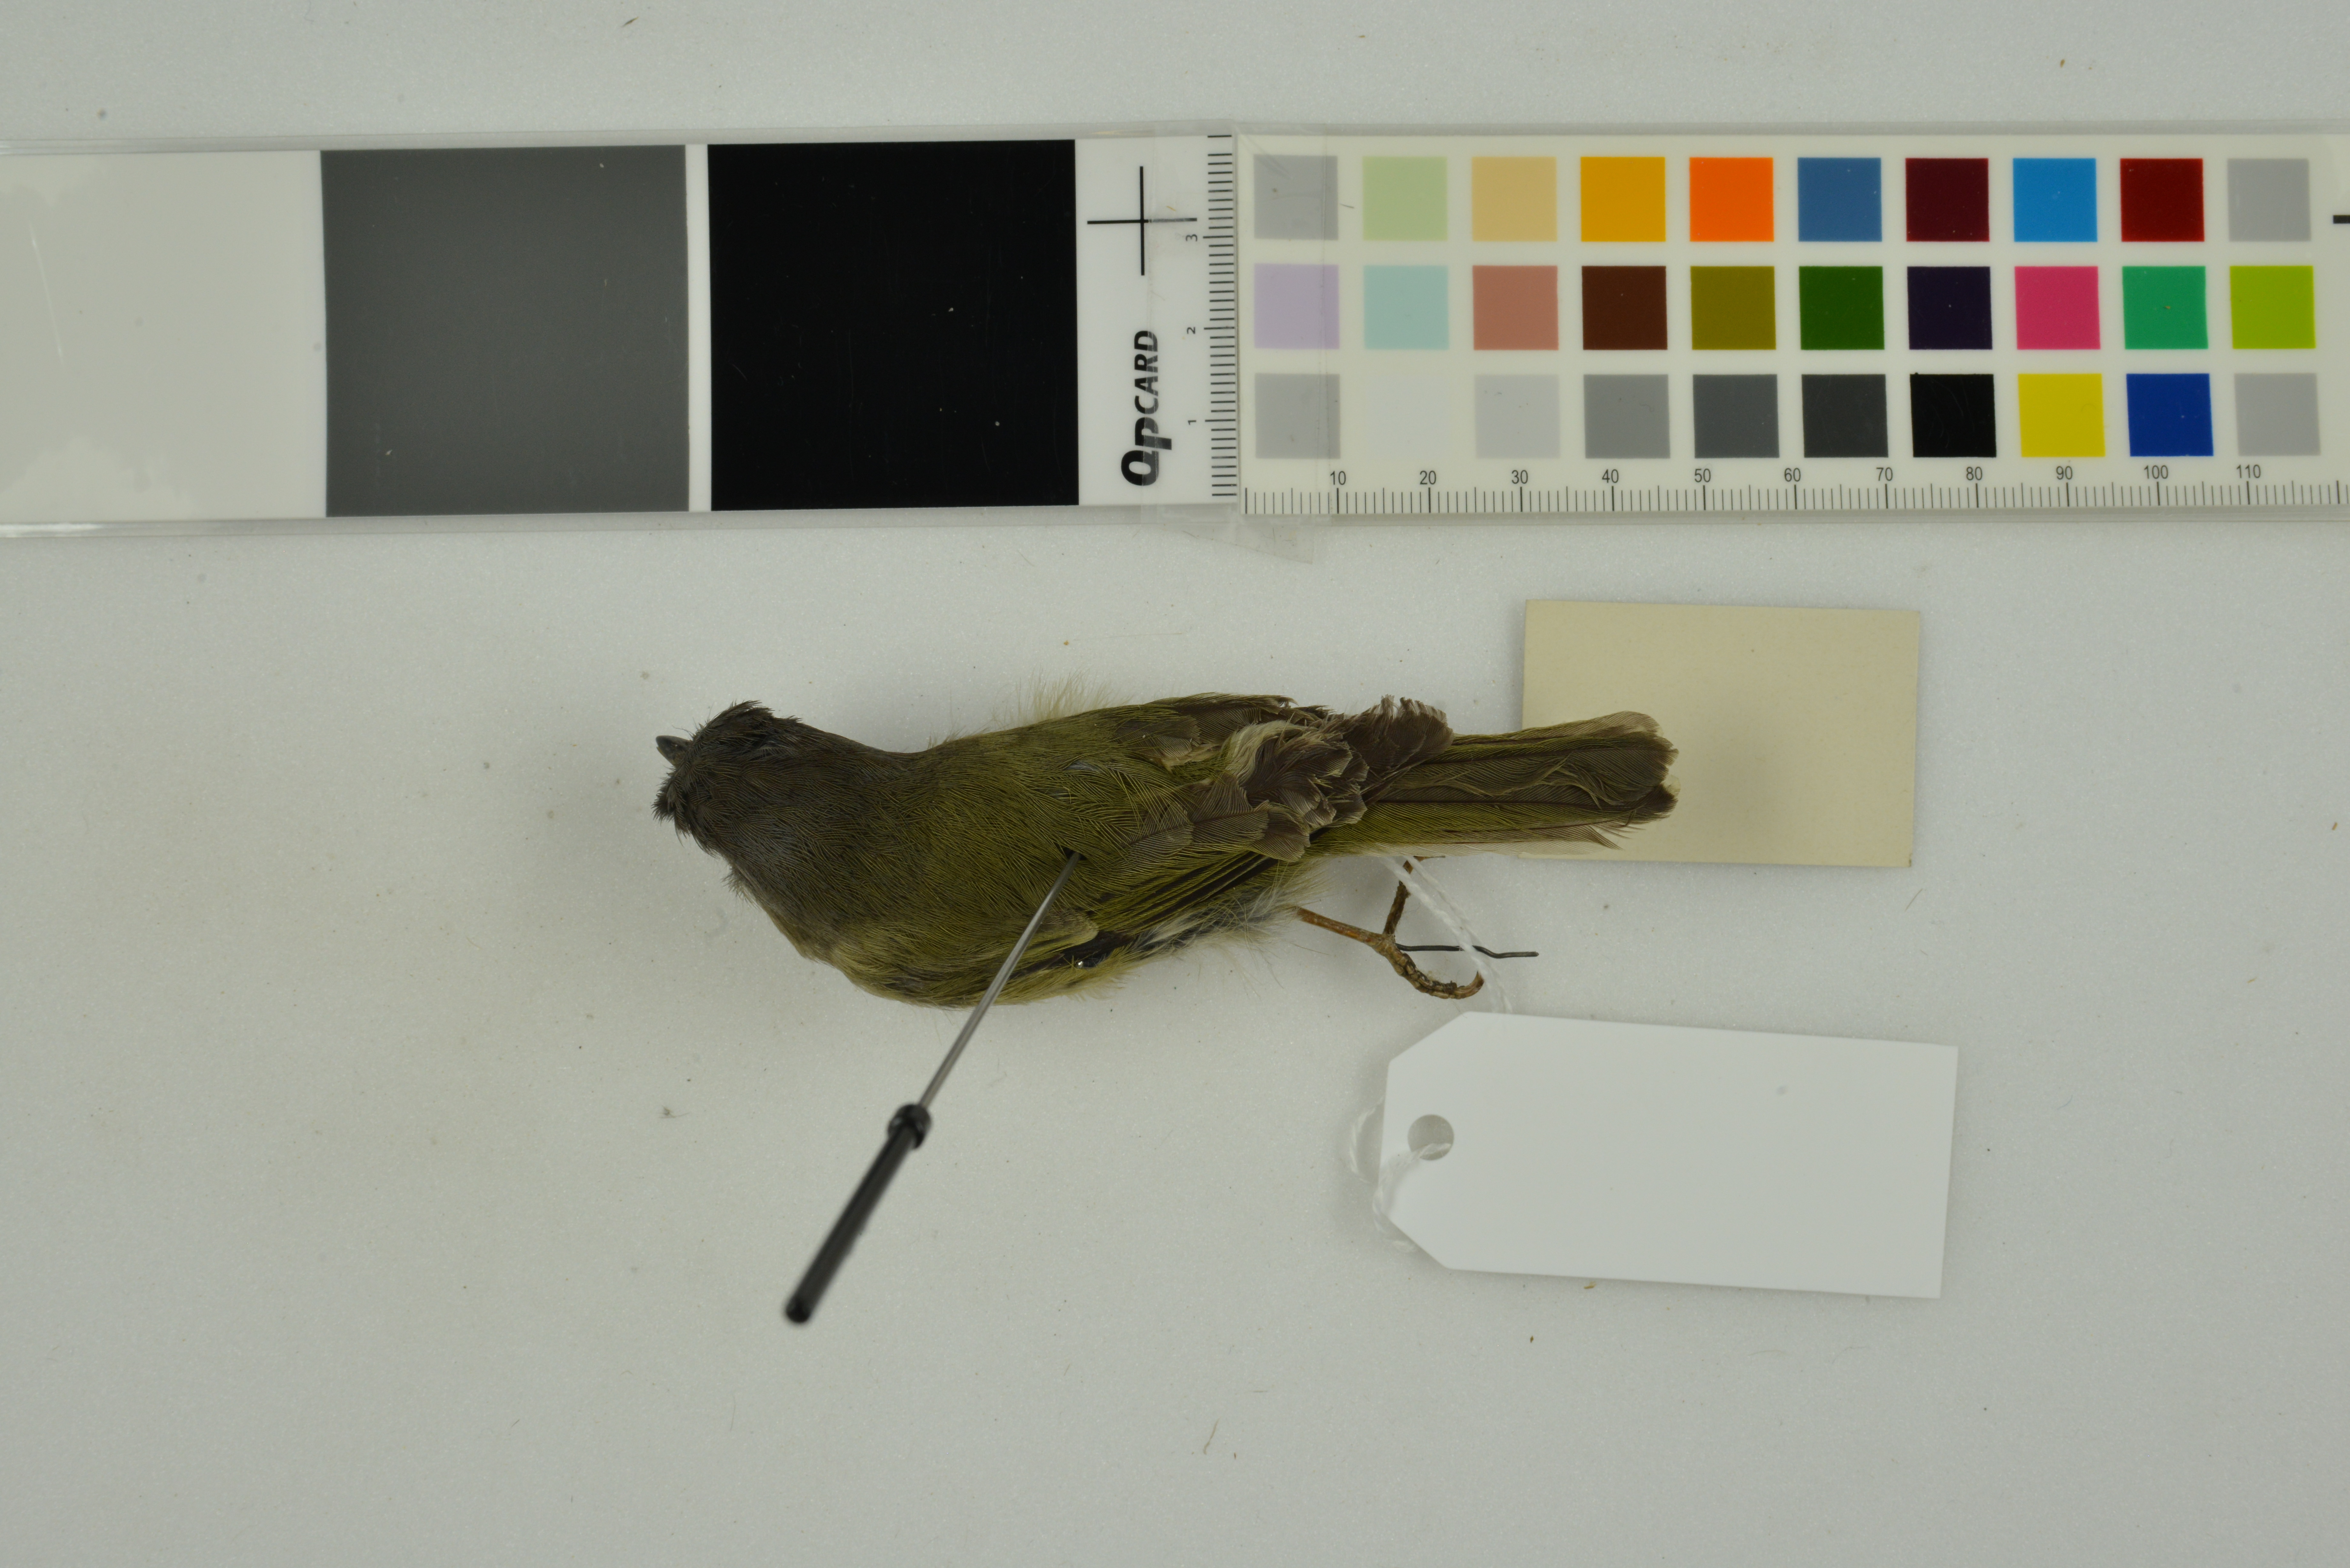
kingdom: Animalia
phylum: Chordata
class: Aves
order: Passeriformes
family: Vireonidae
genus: Pteruthius
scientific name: Pteruthius xanthochlorus
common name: Green shrike-babbler
